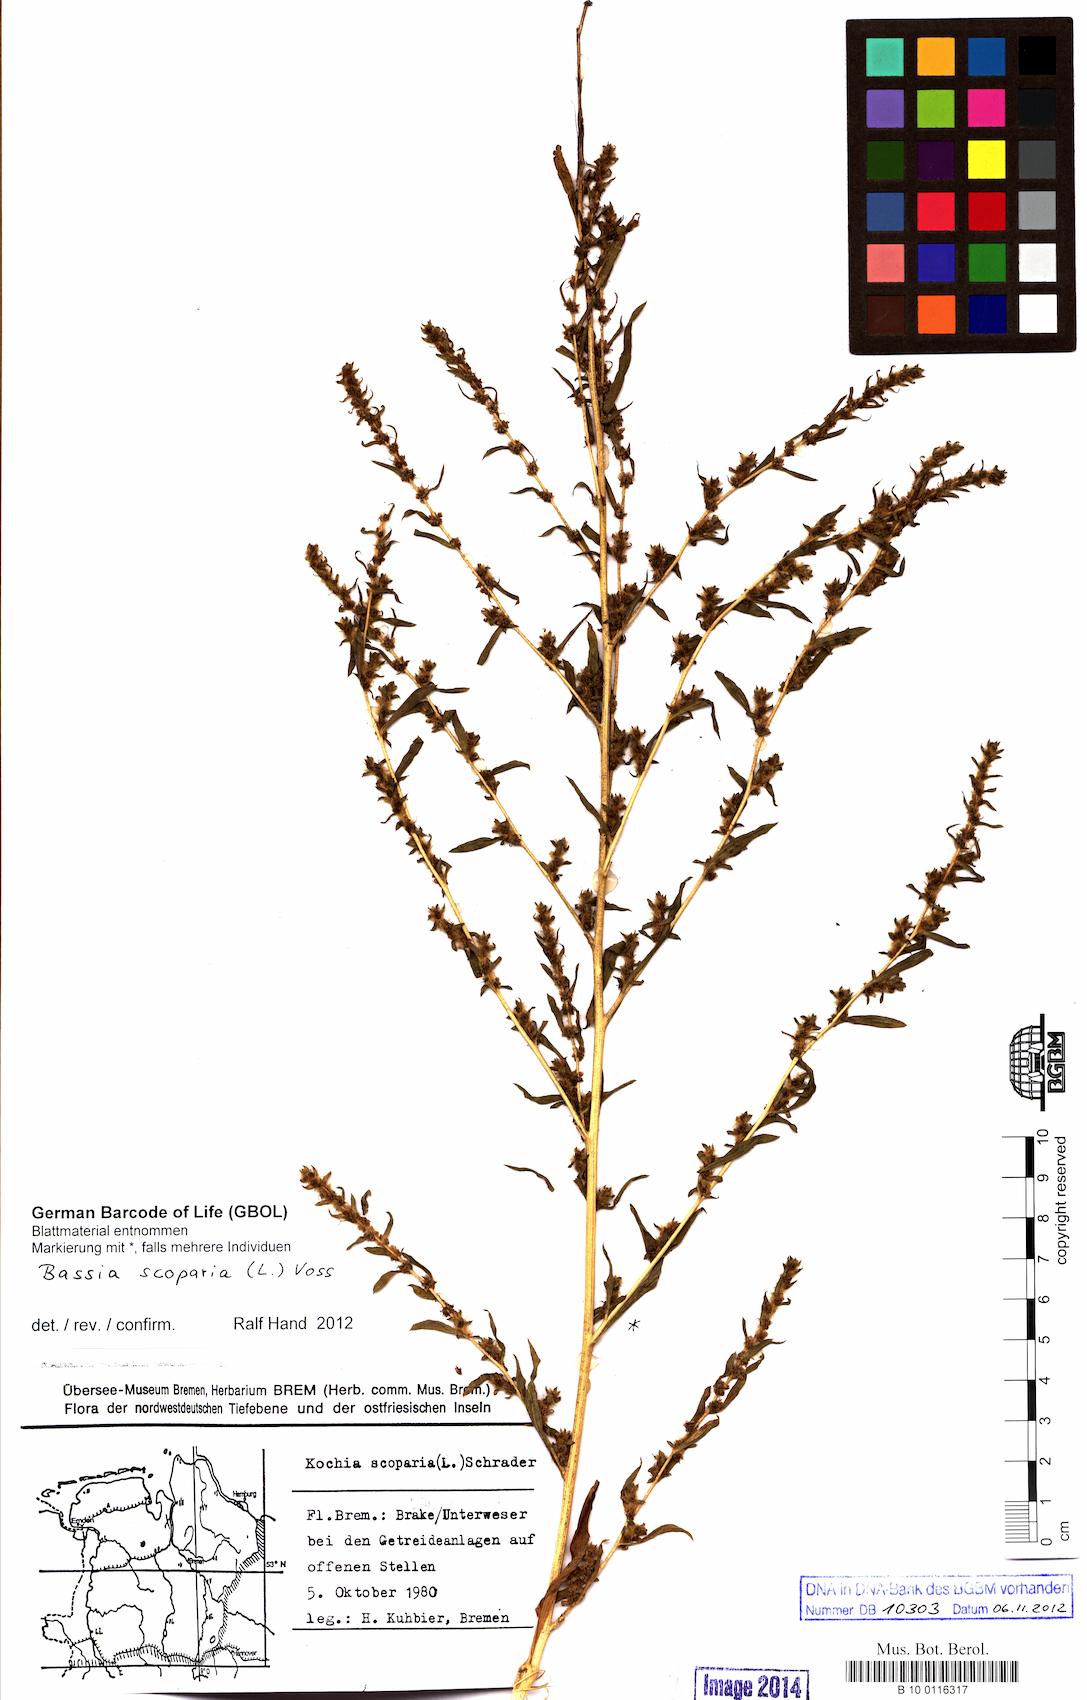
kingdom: Plantae
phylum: Tracheophyta
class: Magnoliopsida
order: Caryophyllales
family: Amaranthaceae
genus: Bassia
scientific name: Bassia scoparia
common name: Belvedere
